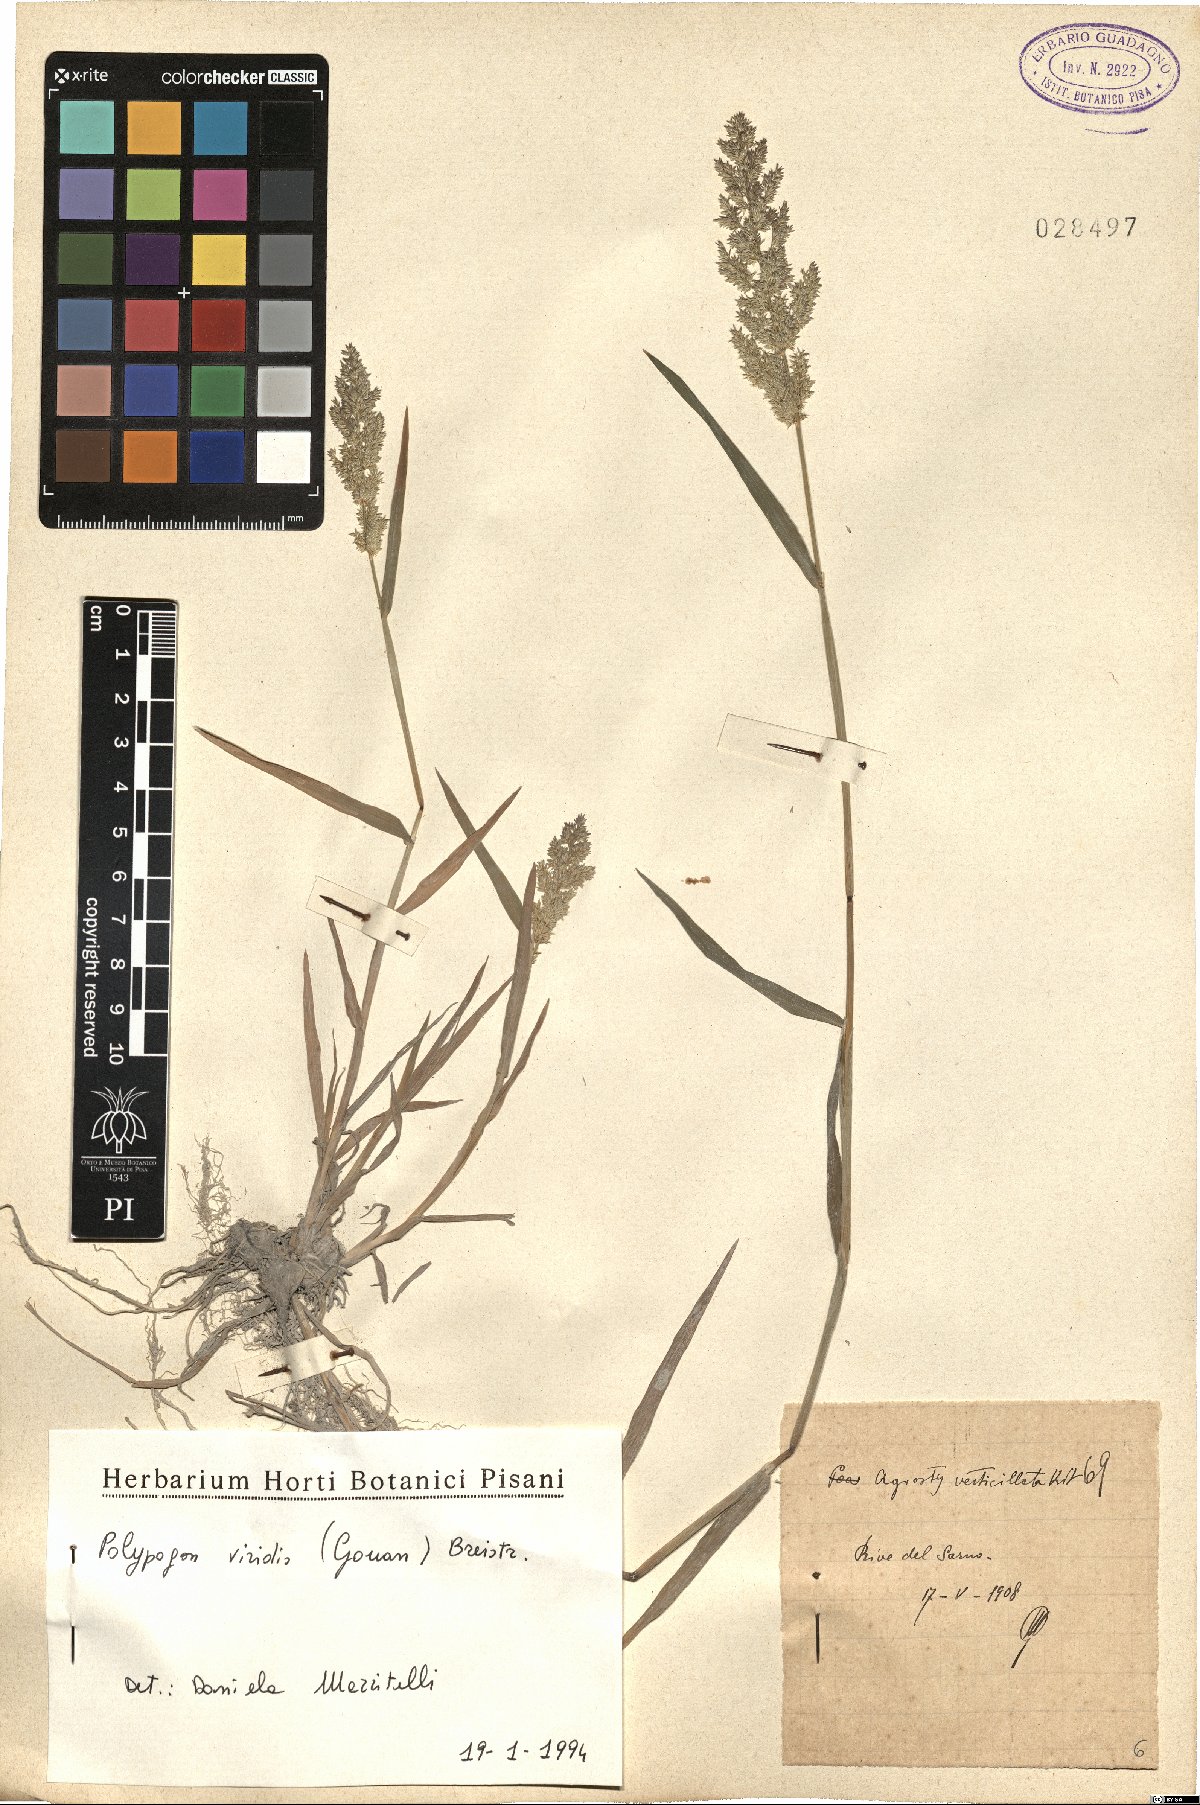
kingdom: Plantae
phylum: Tracheophyta
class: Liliopsida
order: Poales
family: Poaceae
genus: Polypogon
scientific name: Polypogon viridis
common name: Water bent
